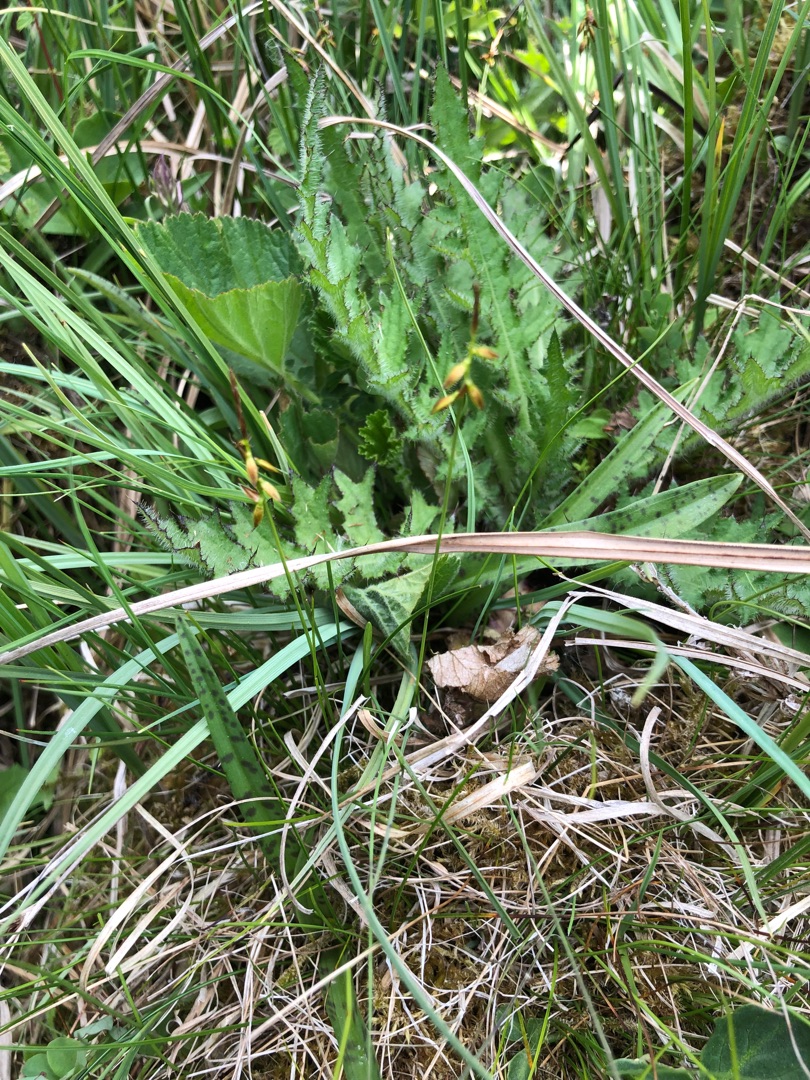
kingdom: Plantae
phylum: Tracheophyta
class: Liliopsida
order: Poales
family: Cyperaceae
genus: Carex
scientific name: Carex pulicaris
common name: Loppe-star
